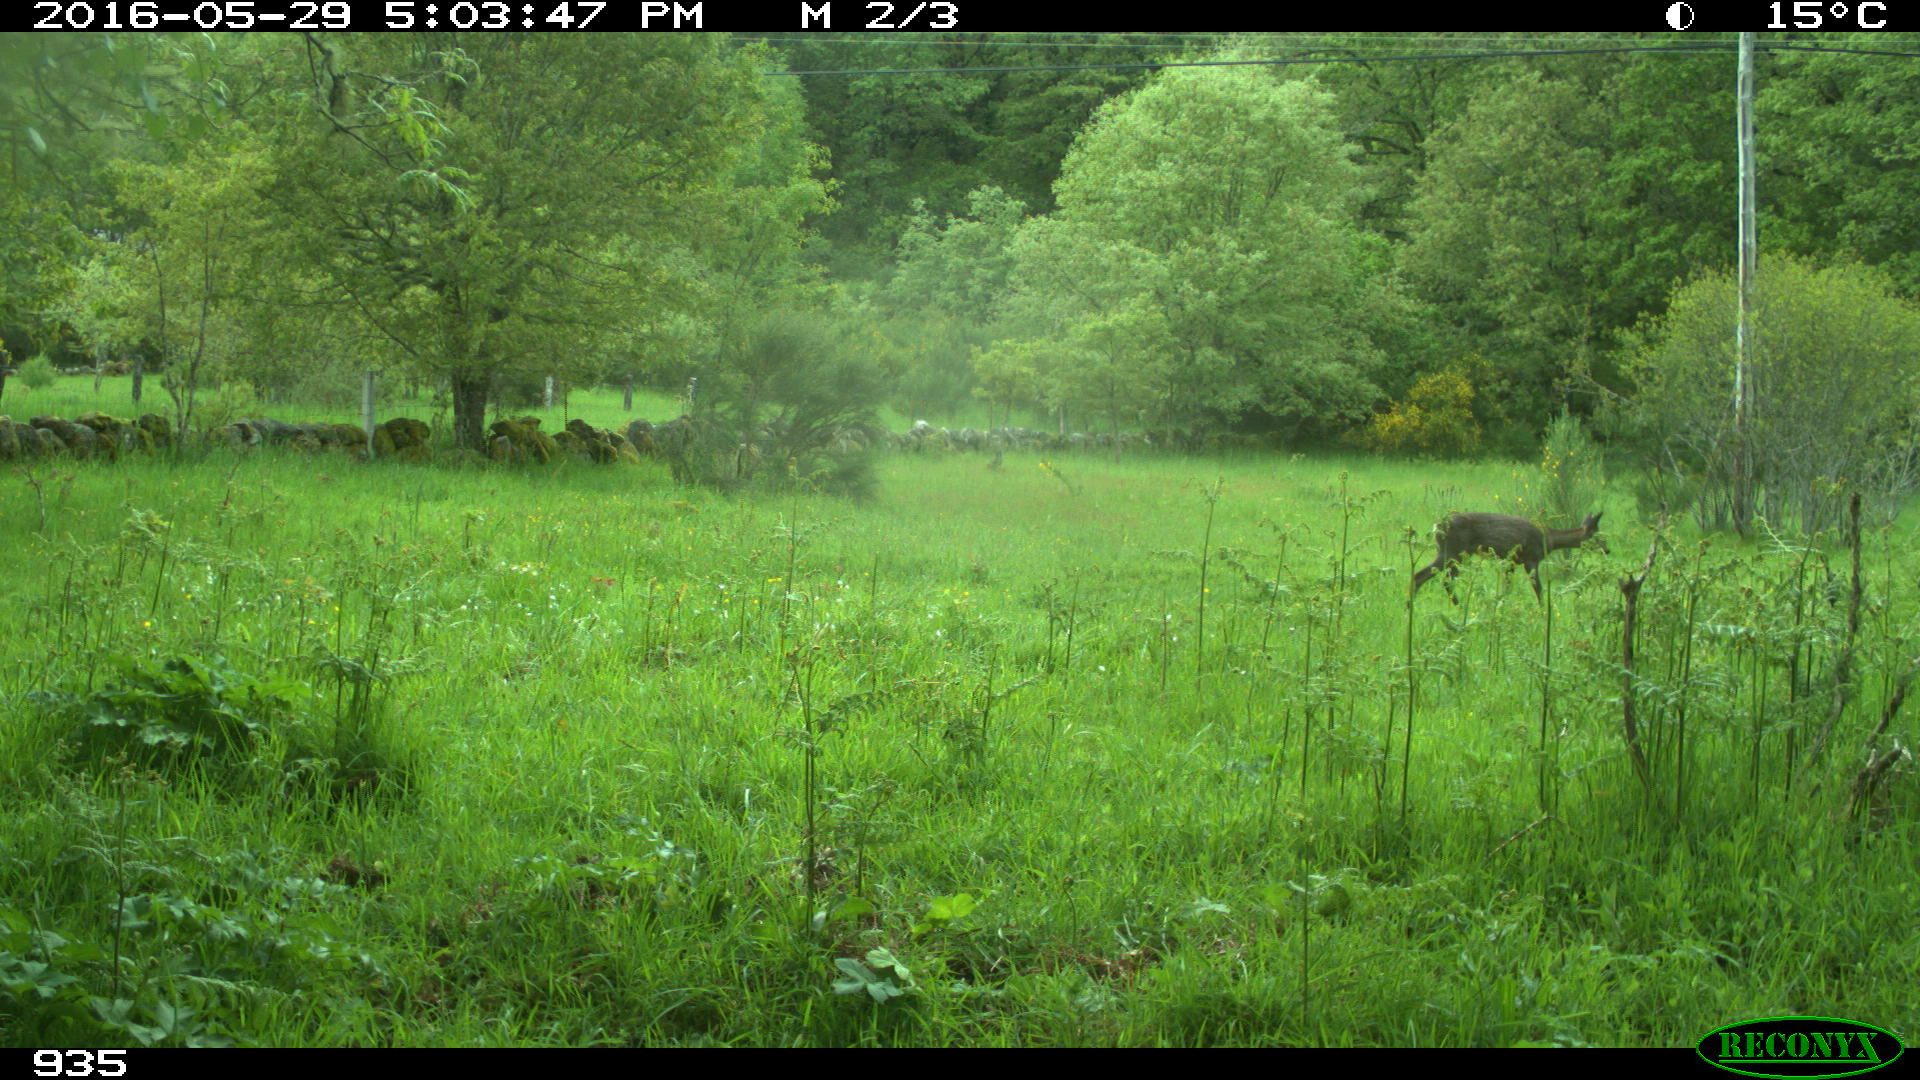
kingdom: Animalia
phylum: Chordata
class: Mammalia
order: Artiodactyla
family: Cervidae
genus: Capreolus
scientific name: Capreolus capreolus
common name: Western roe deer
